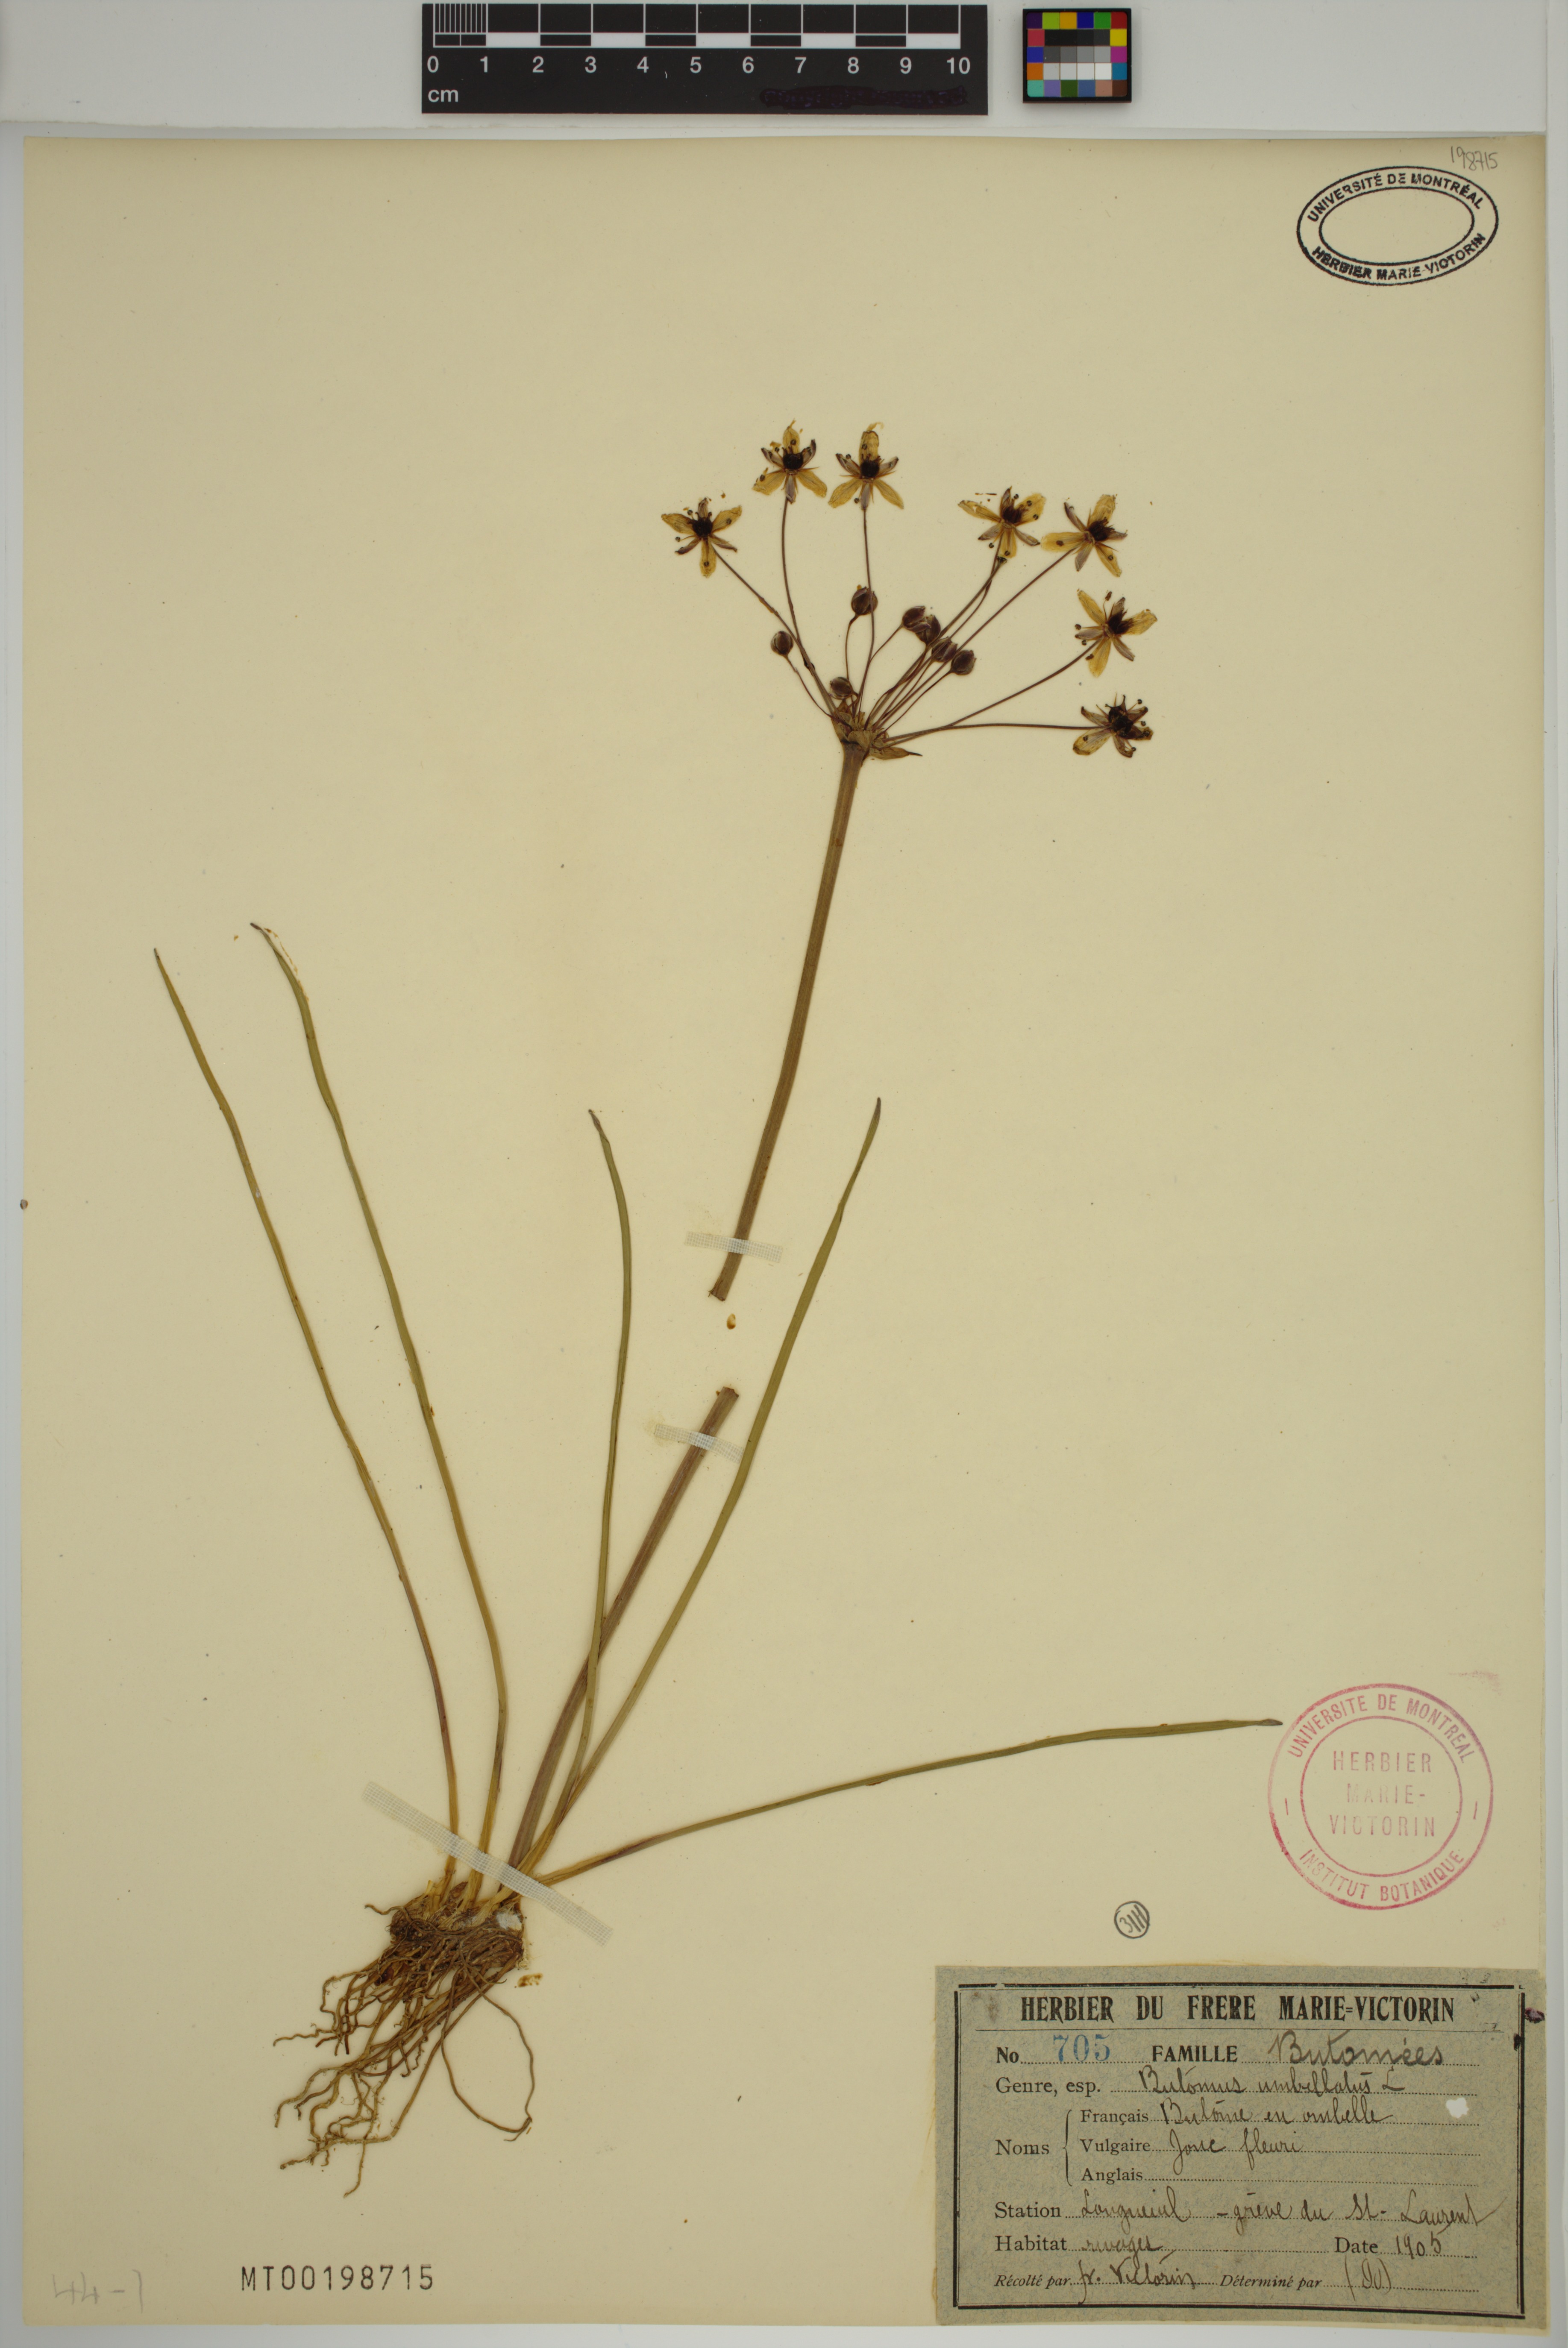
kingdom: Plantae
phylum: Tracheophyta
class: Liliopsida
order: Alismatales
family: Butomaceae
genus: Butomus
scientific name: Butomus umbellatus
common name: Flowering-rush
